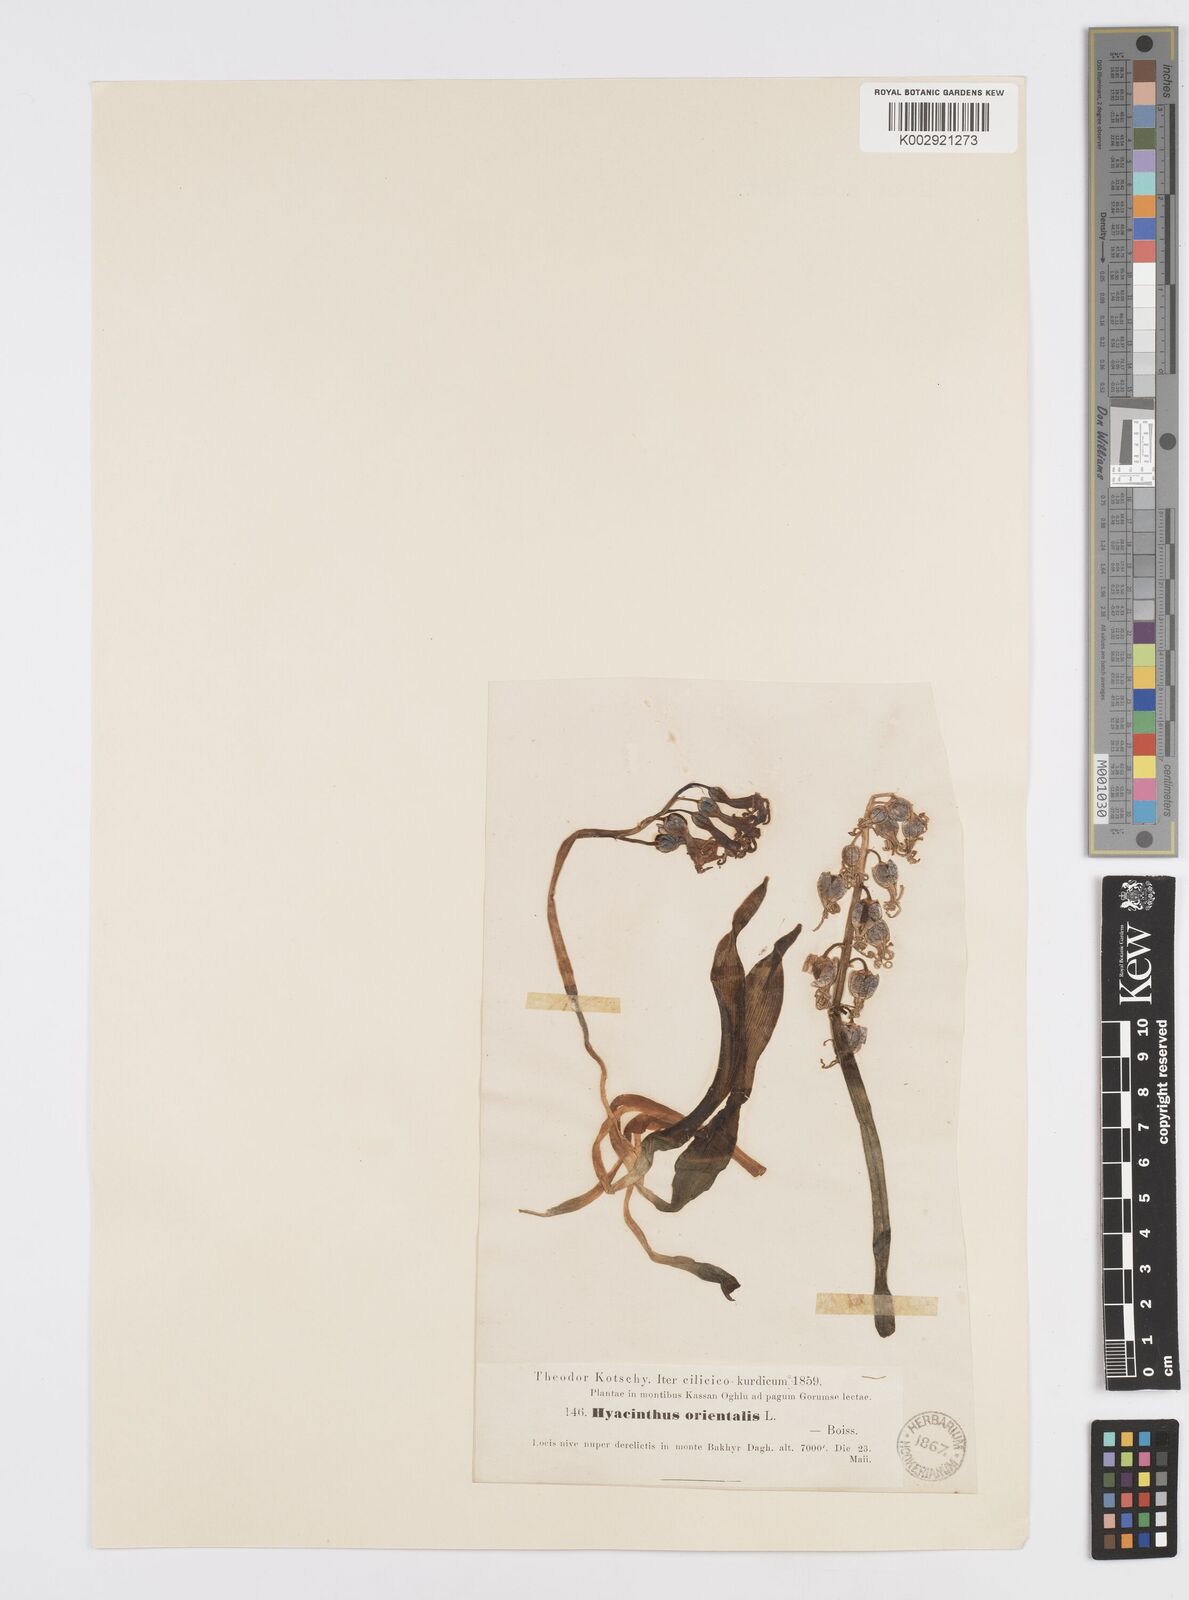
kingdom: Plantae
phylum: Tracheophyta
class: Liliopsida
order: Asparagales
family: Asparagaceae
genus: Hyacinthus
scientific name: Hyacinthus orientalis
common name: Hyacinth
